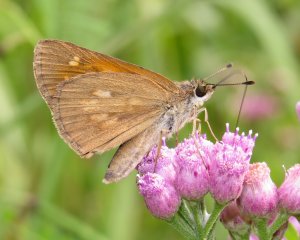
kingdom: Animalia
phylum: Arthropoda
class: Insecta
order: Lepidoptera
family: Hesperiidae
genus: Poanes
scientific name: Poanes viator
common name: Broad-winged Skipper
